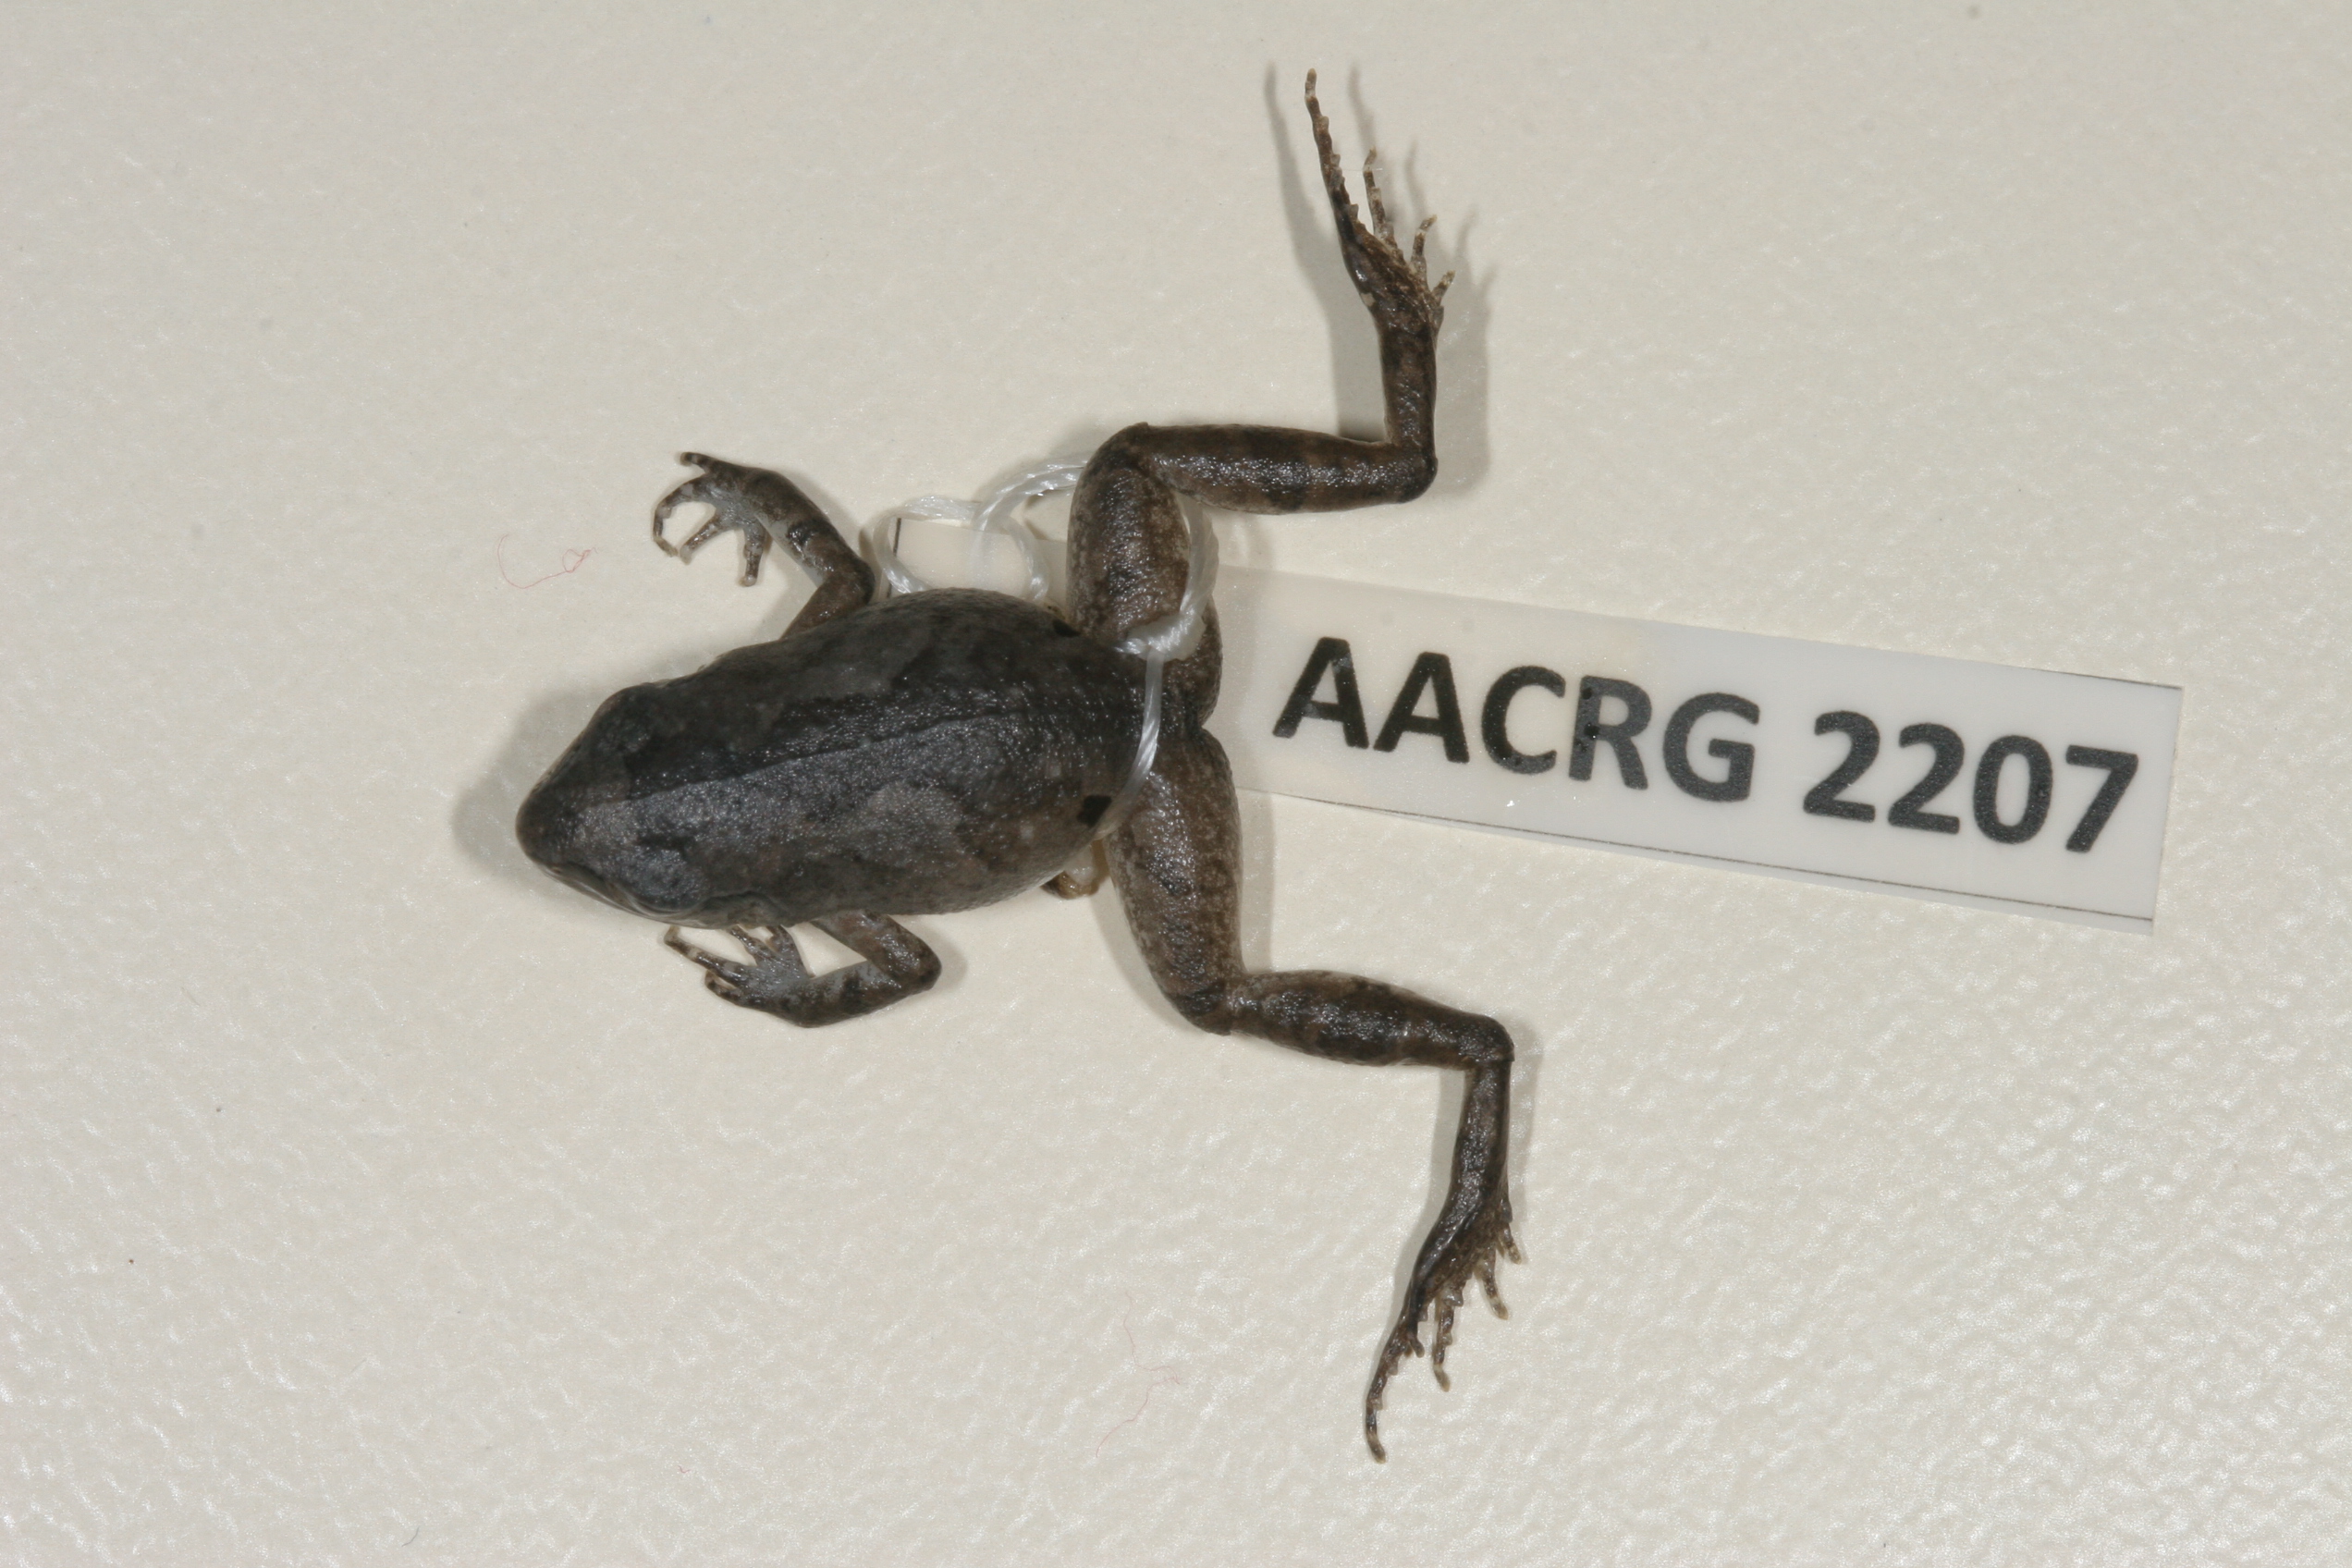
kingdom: Animalia
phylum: Chordata
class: Amphibia
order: Anura
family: Arthroleptidae
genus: Arthroleptis
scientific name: Arthroleptis wahlbergii
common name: Bush squeaker
